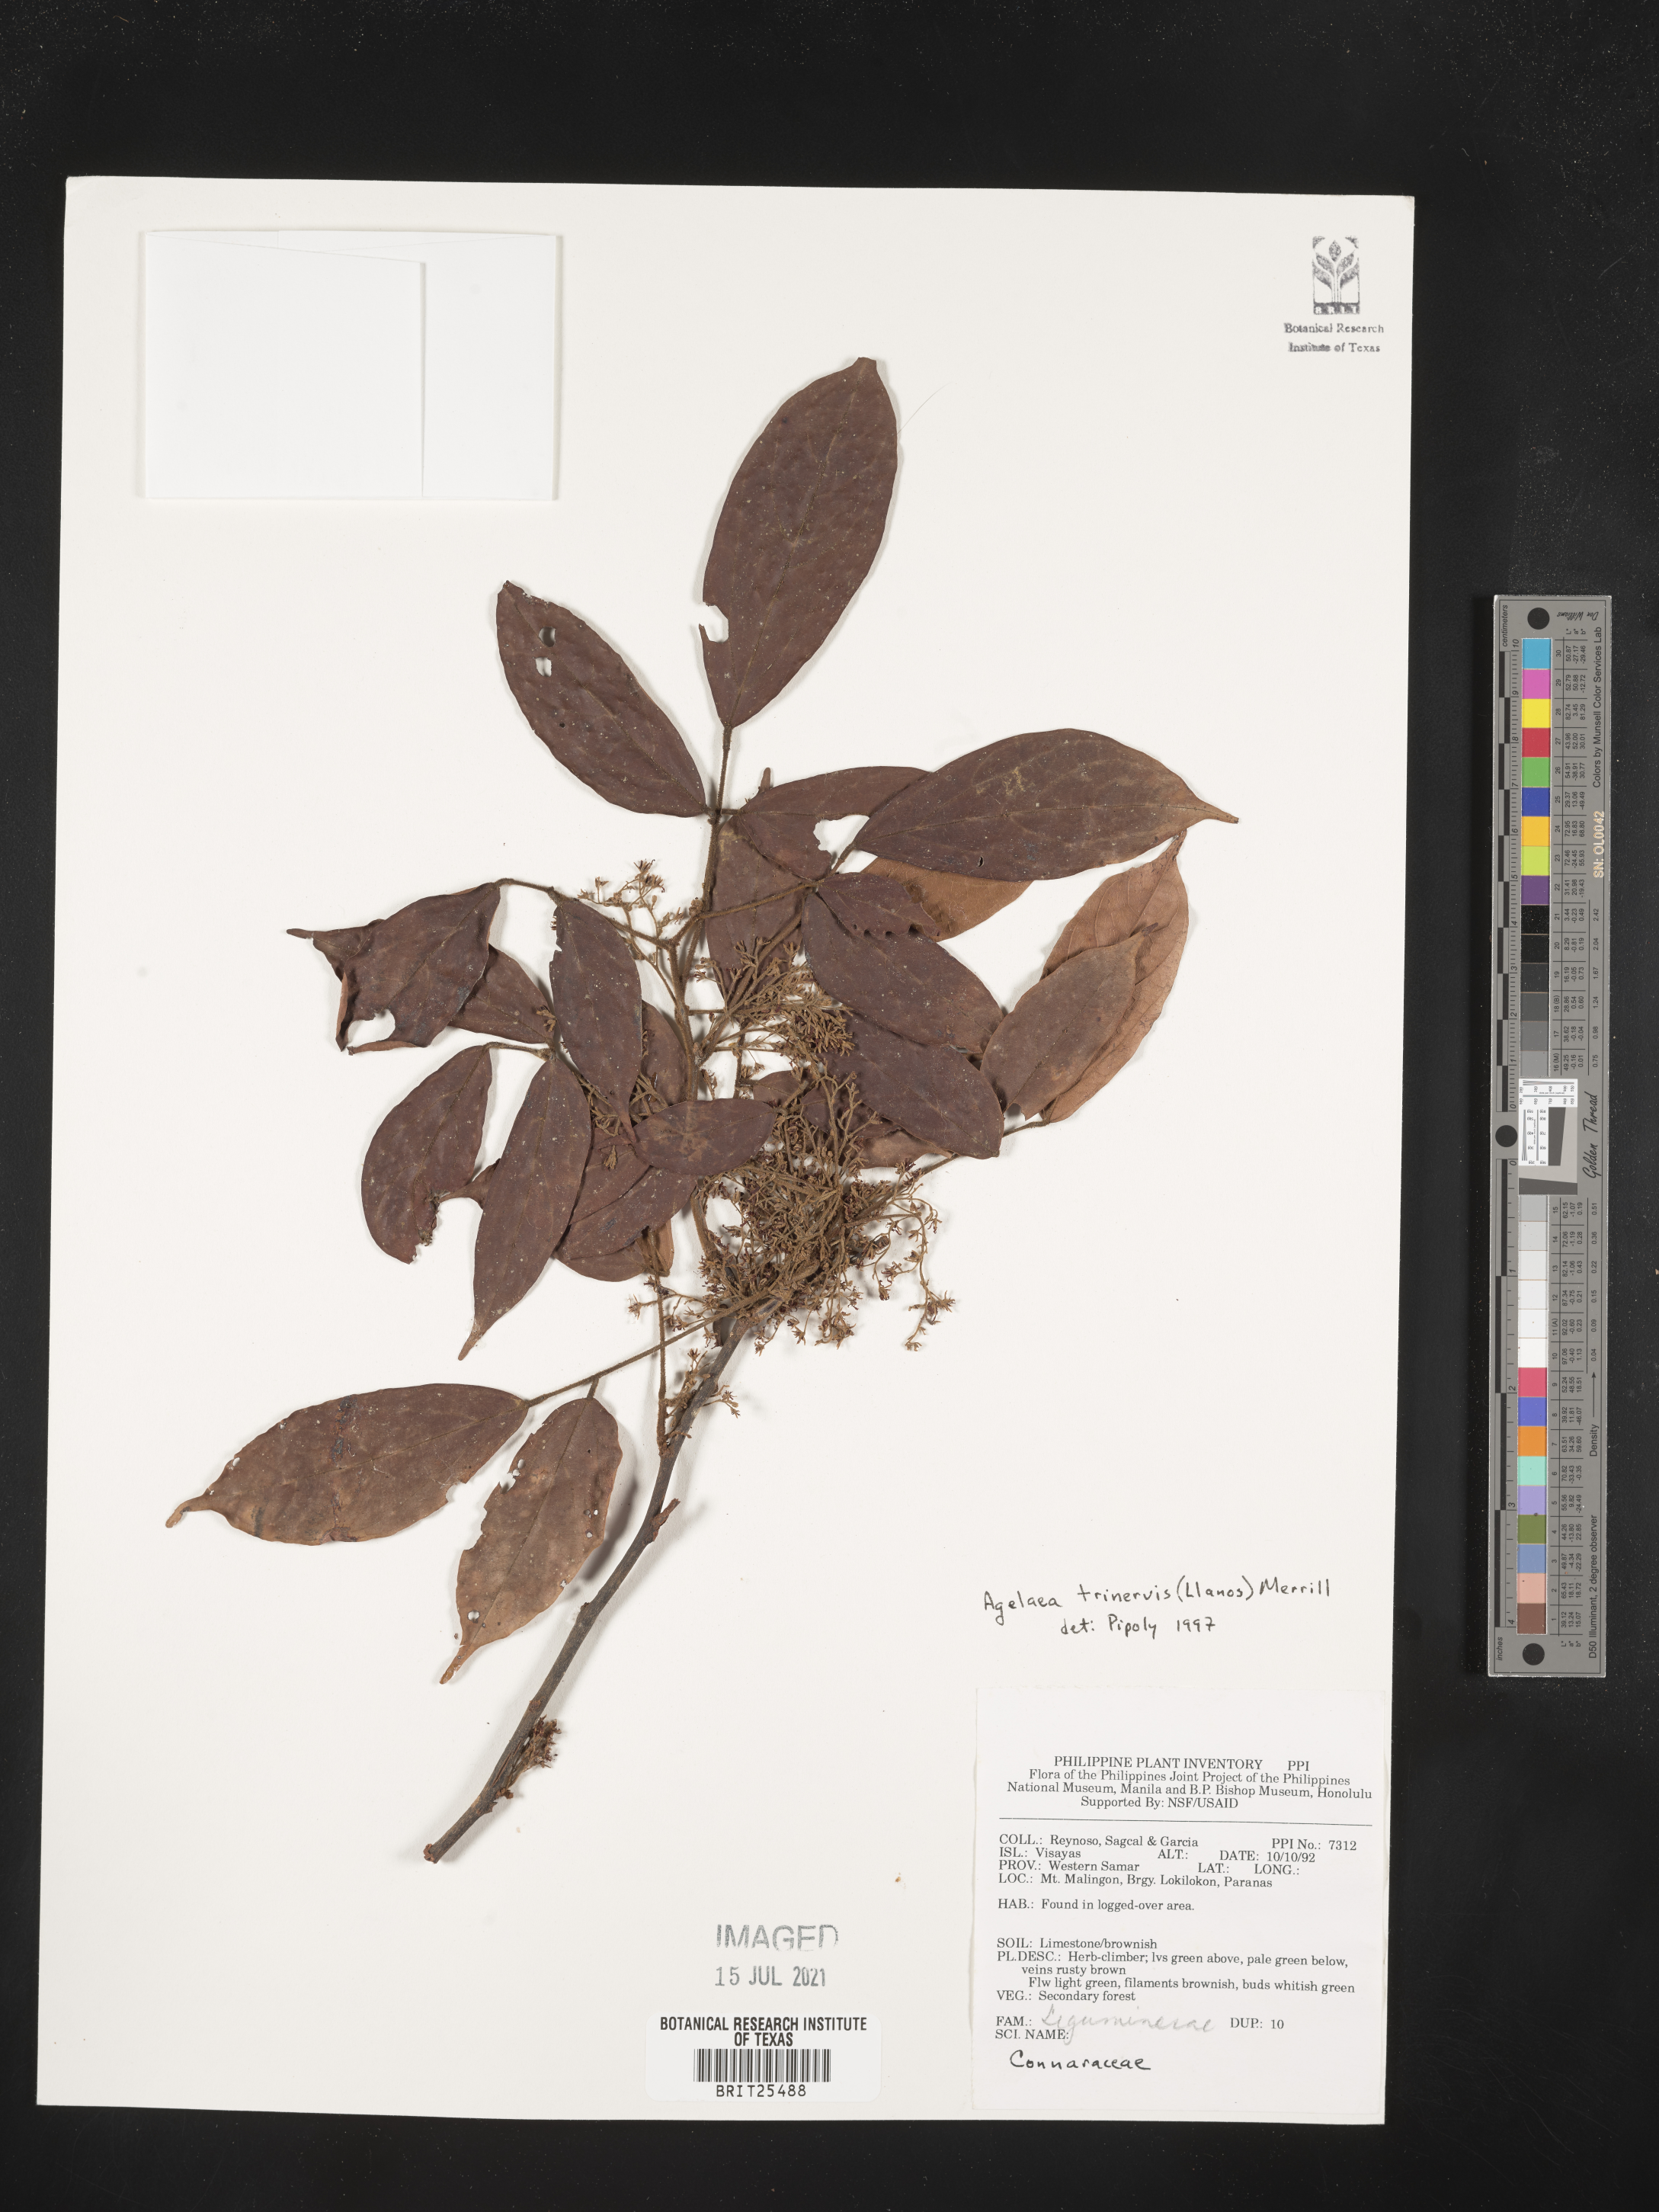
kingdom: Plantae
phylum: Tracheophyta
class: Magnoliopsida
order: Oxalidales
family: Connaraceae
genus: Agelaea
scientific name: Agelaea trinervis
